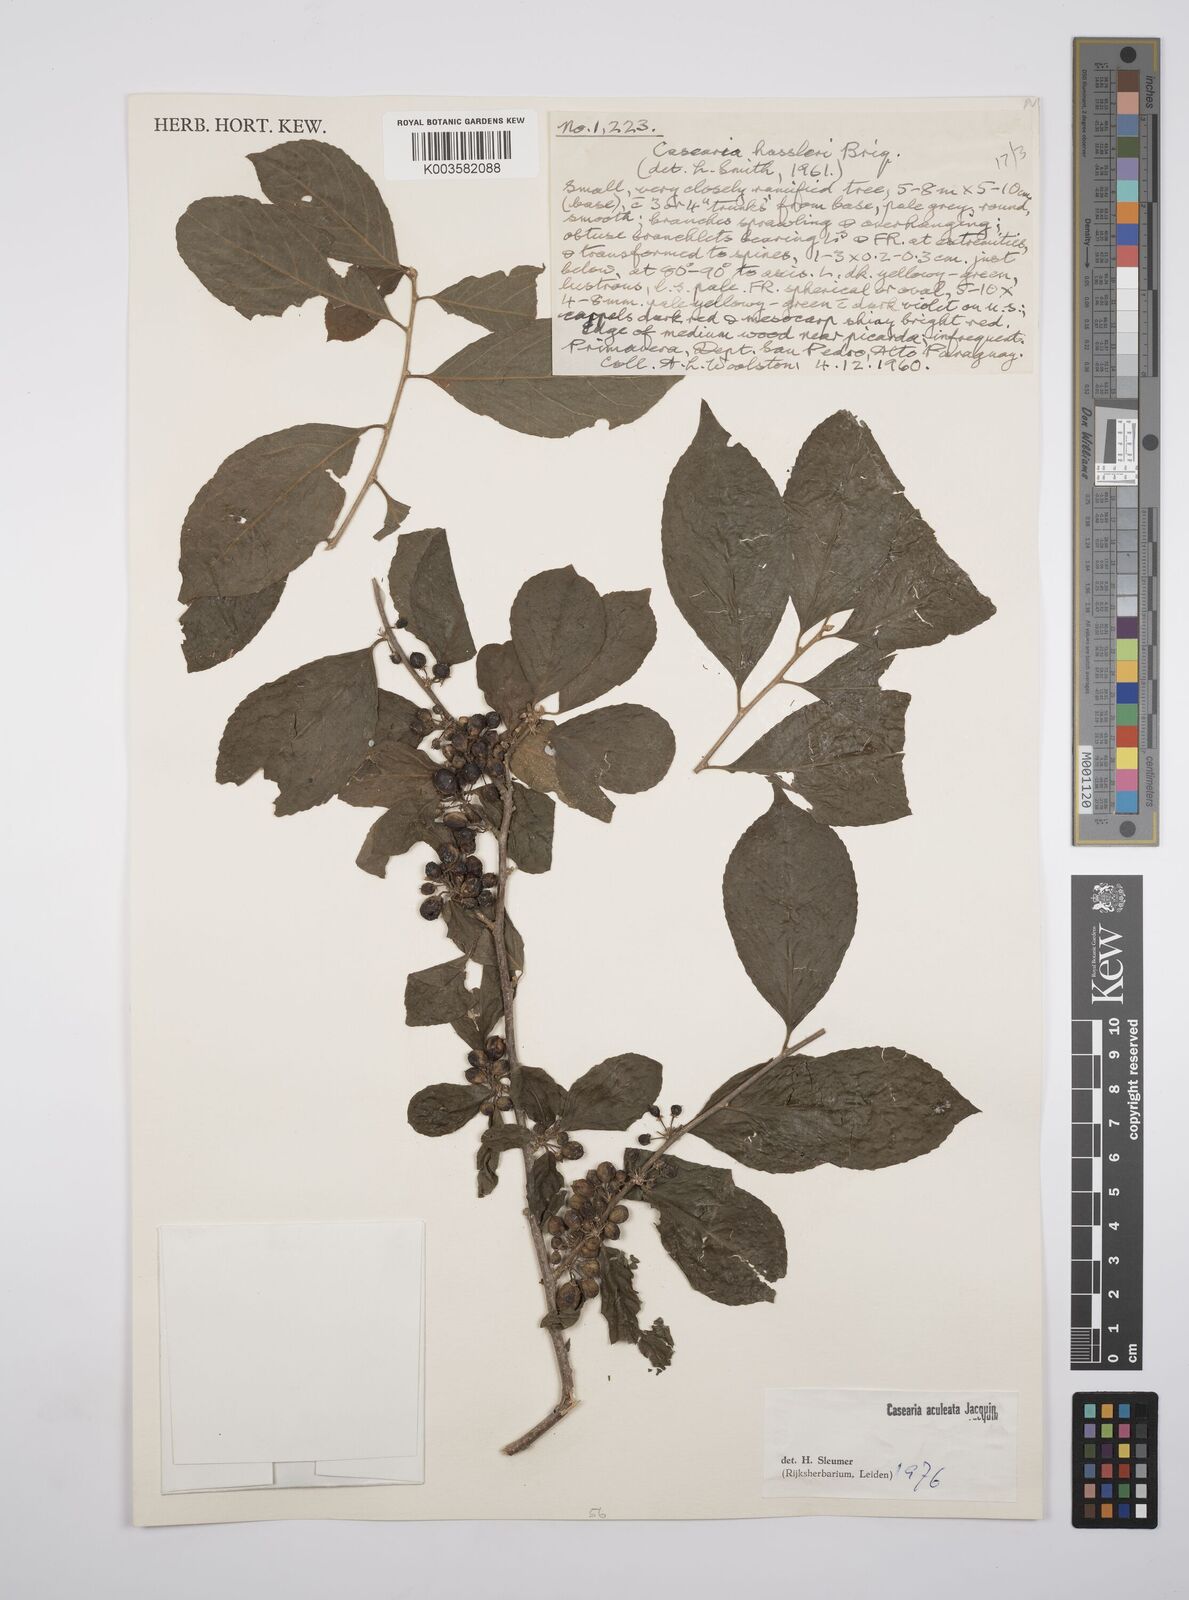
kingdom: Plantae
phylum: Tracheophyta
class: Magnoliopsida
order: Malpighiales
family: Salicaceae
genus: Casearia
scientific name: Casearia aculeata
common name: Cockspur
